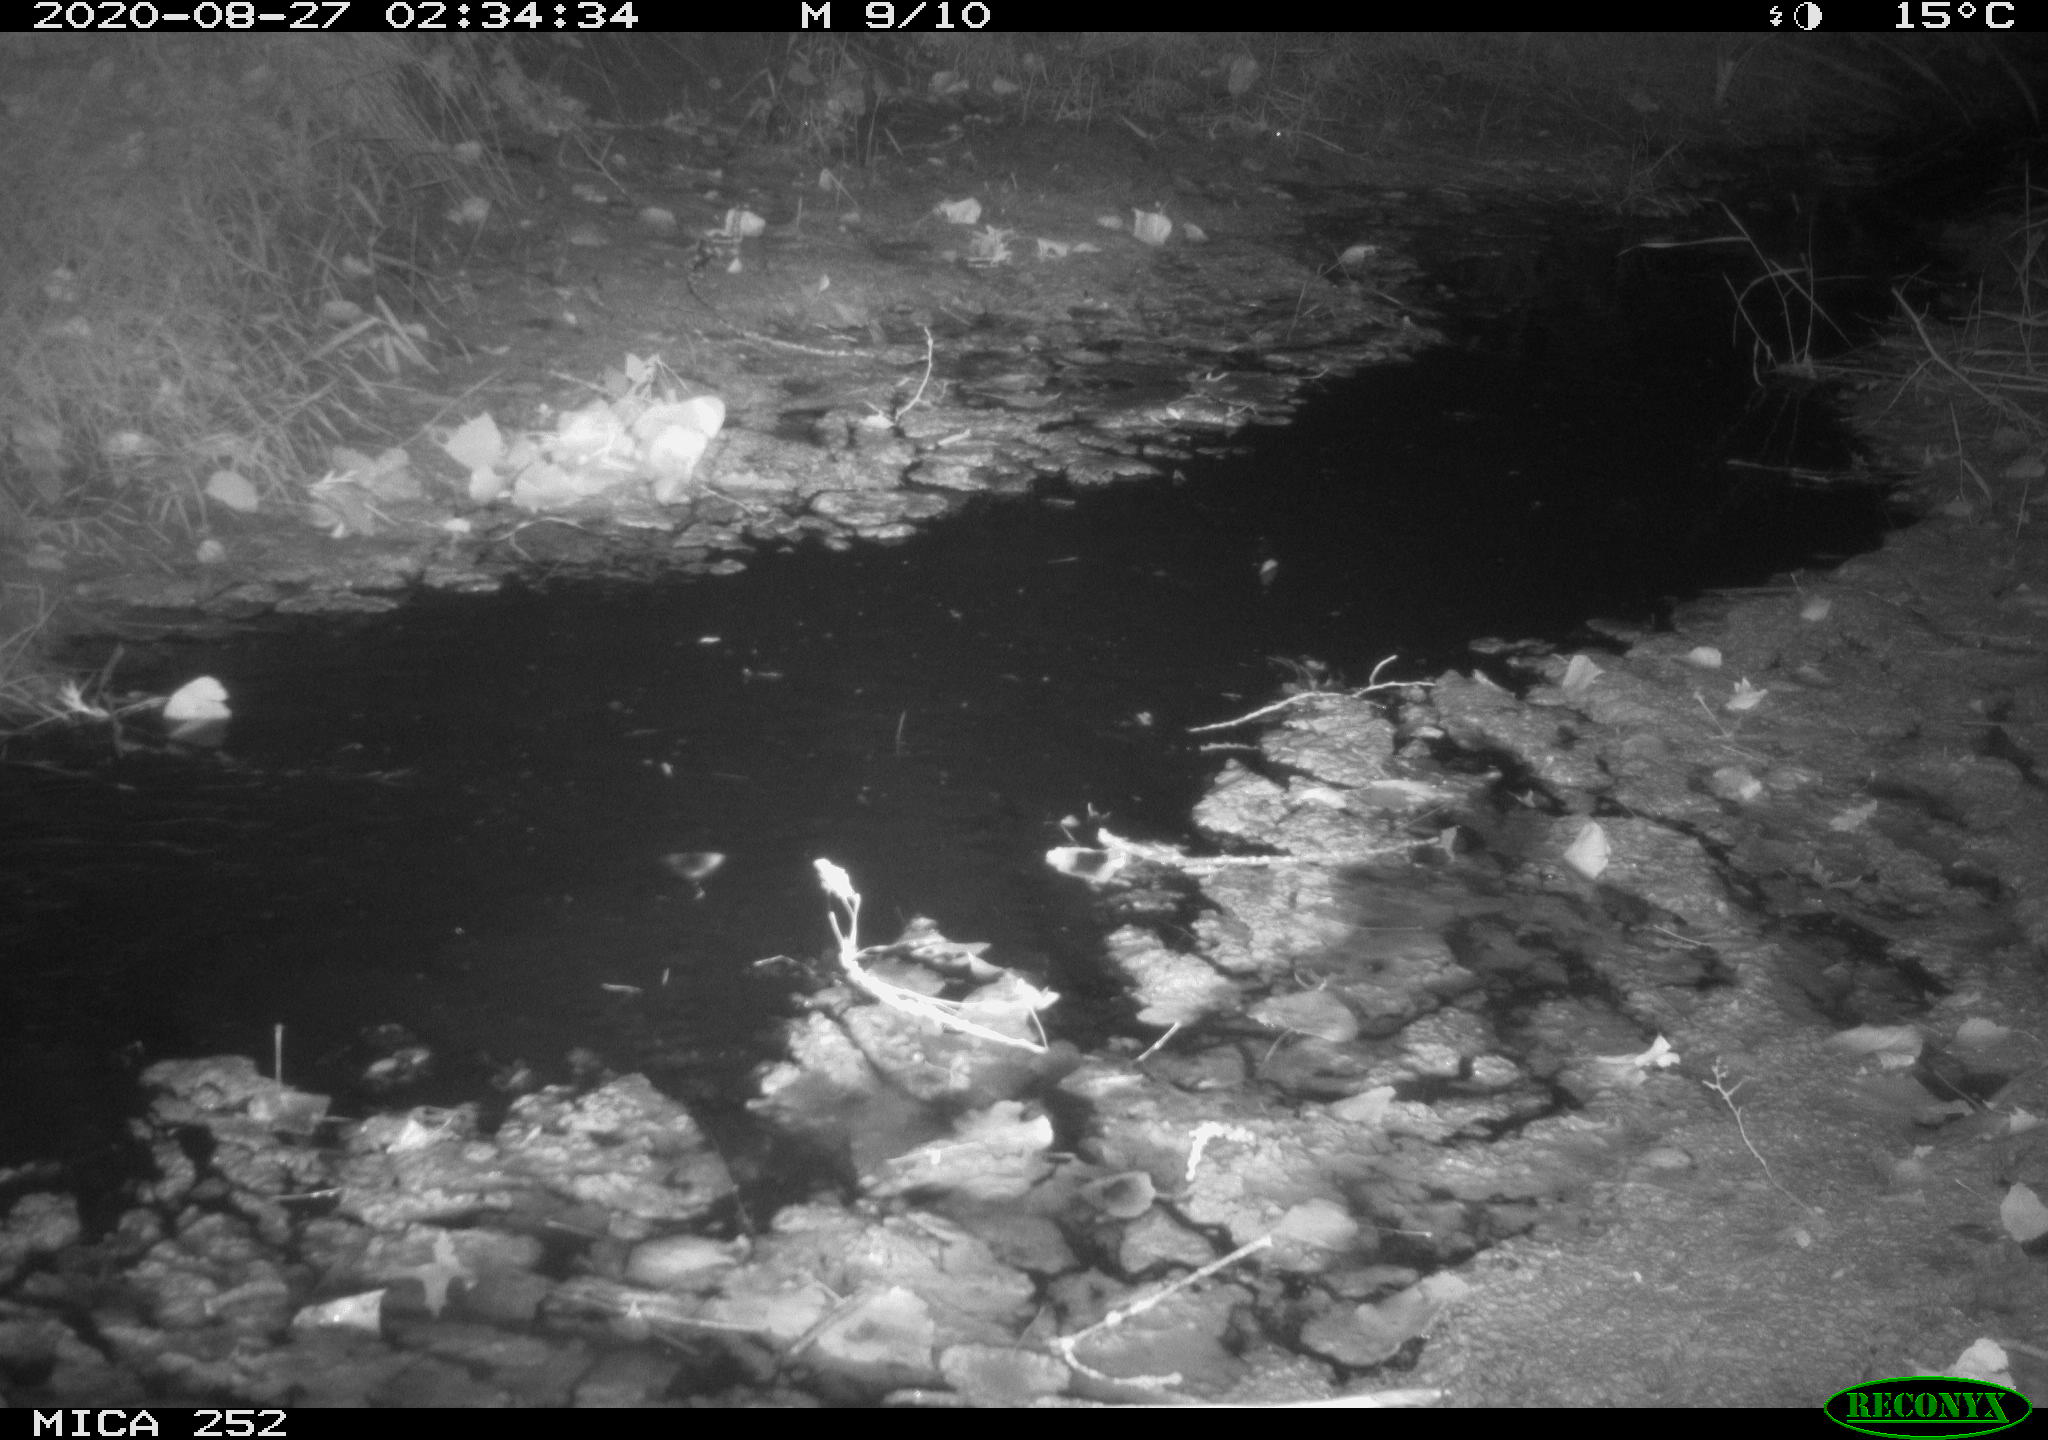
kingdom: Animalia
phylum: Chordata
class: Mammalia
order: Rodentia
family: Castoridae
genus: Castor
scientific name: Castor fiber
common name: Eurasian beaver
